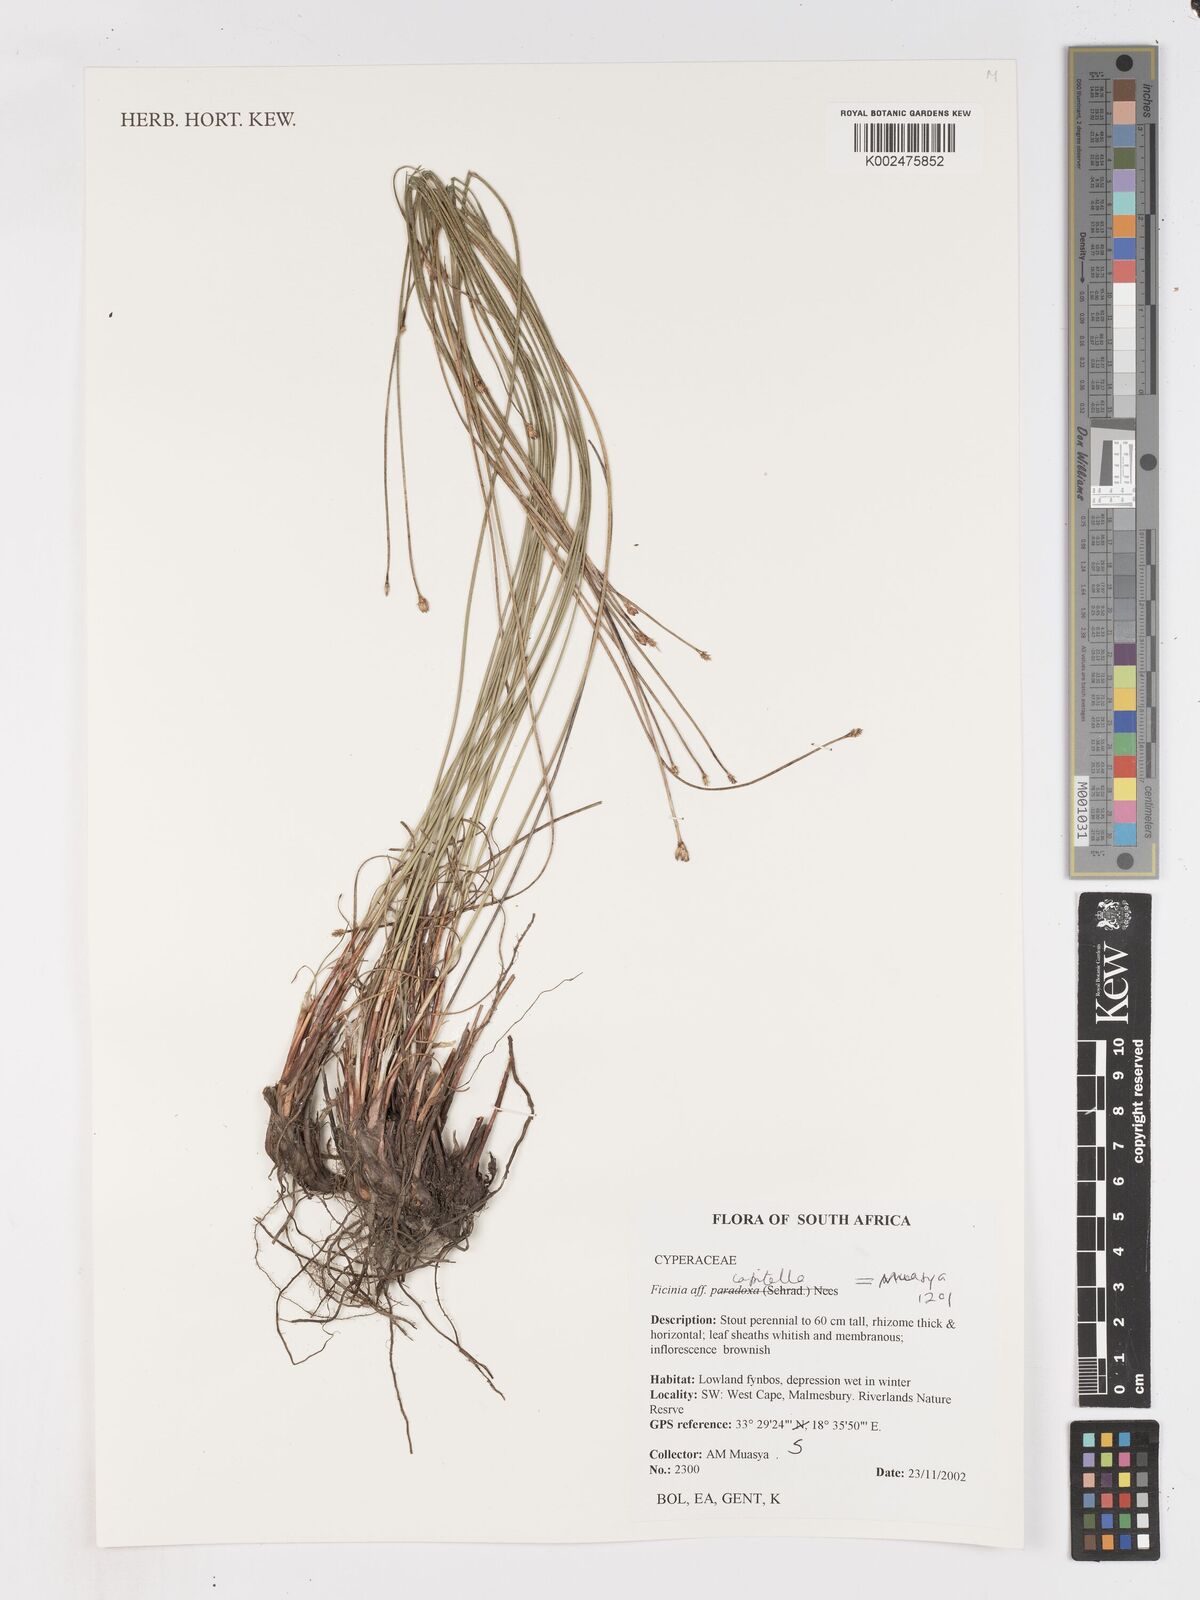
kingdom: Plantae
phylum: Tracheophyta
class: Liliopsida
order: Poales
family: Cyperaceae
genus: Ficinia
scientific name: Ficinia capitella
